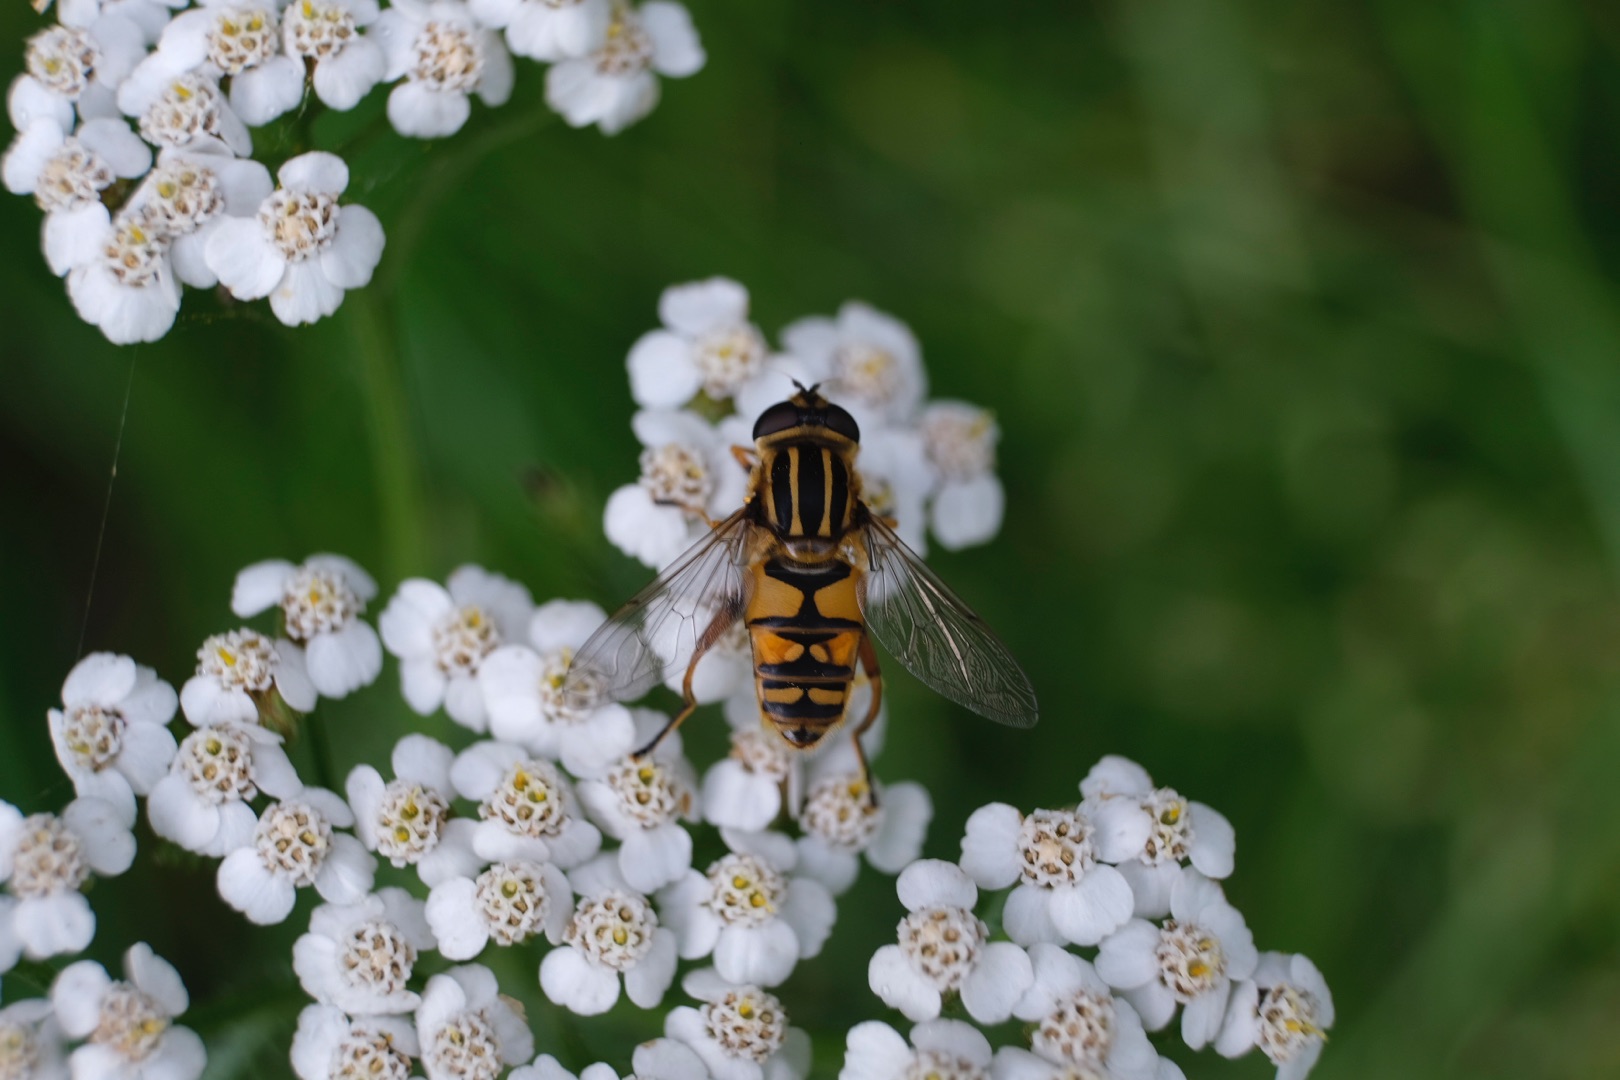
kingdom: Animalia
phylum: Arthropoda
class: Insecta
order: Diptera
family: Syrphidae
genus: Helophilus
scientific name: Helophilus pendulus
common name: Almindelig sumpsvirreflue
